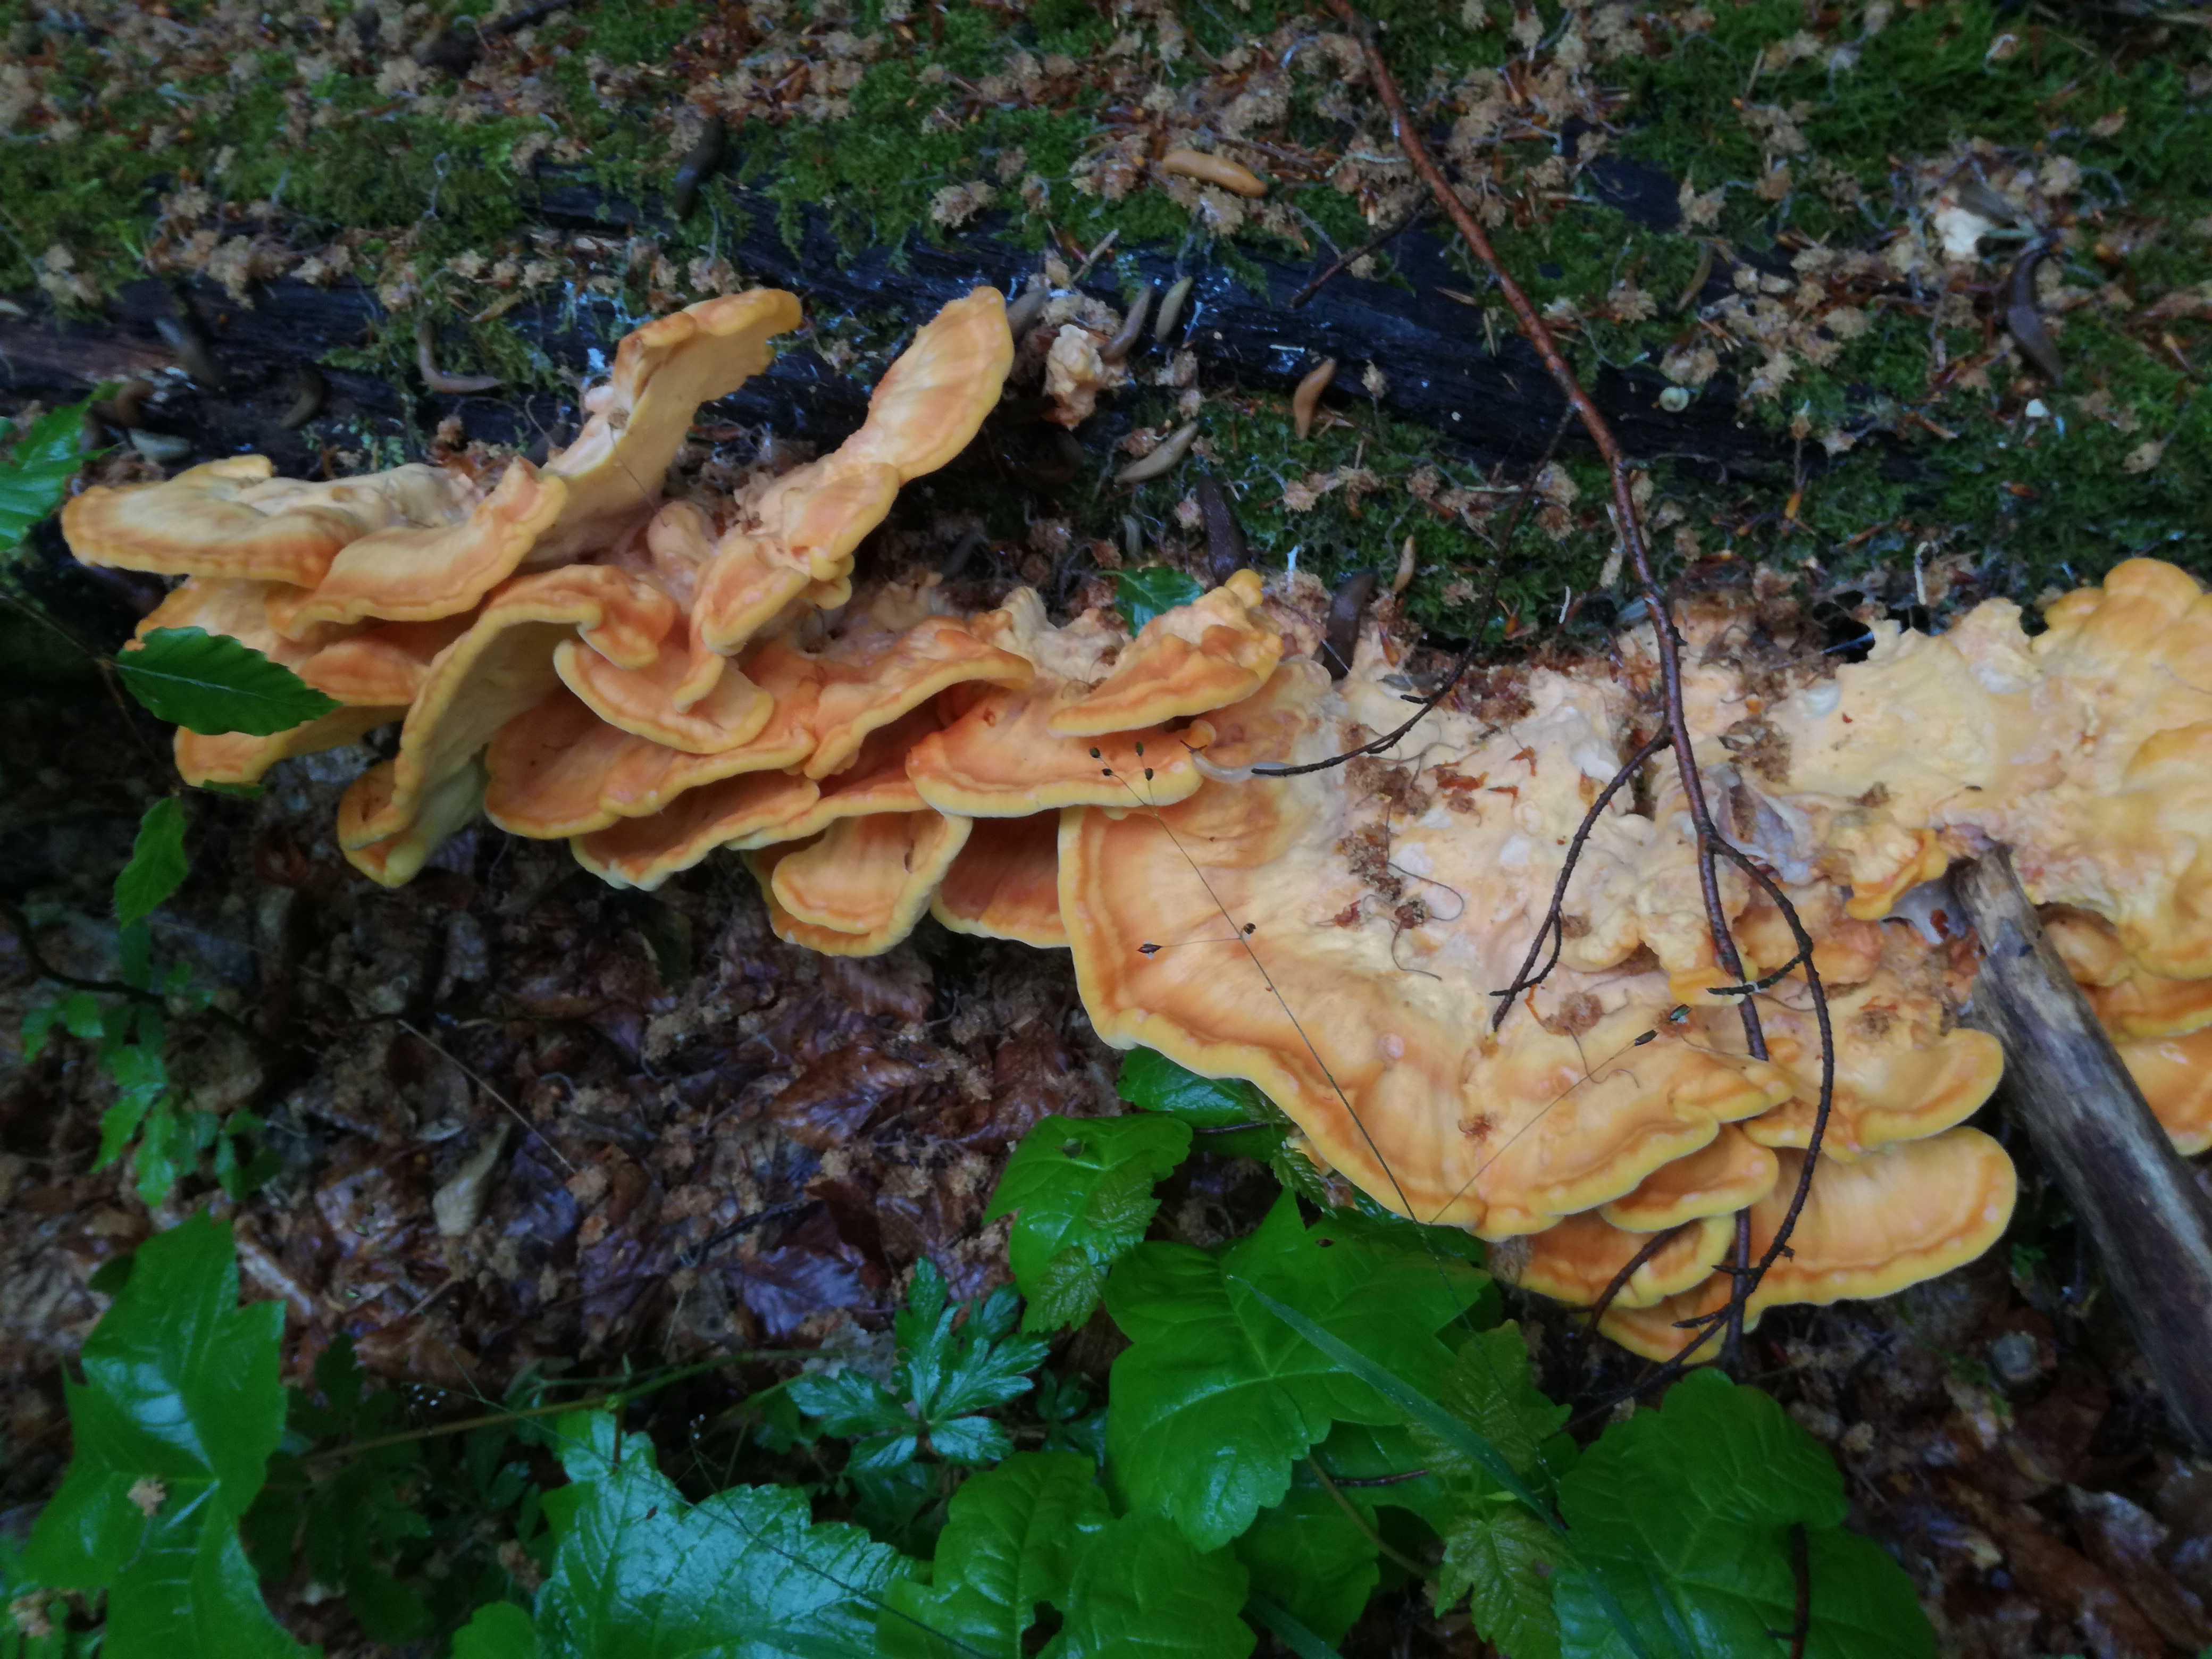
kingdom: Fungi
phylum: Basidiomycota
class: Agaricomycetes
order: Polyporales
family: Laetiporaceae
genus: Laetiporus
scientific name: Laetiporus sulphureus
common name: svovlporesvamp
